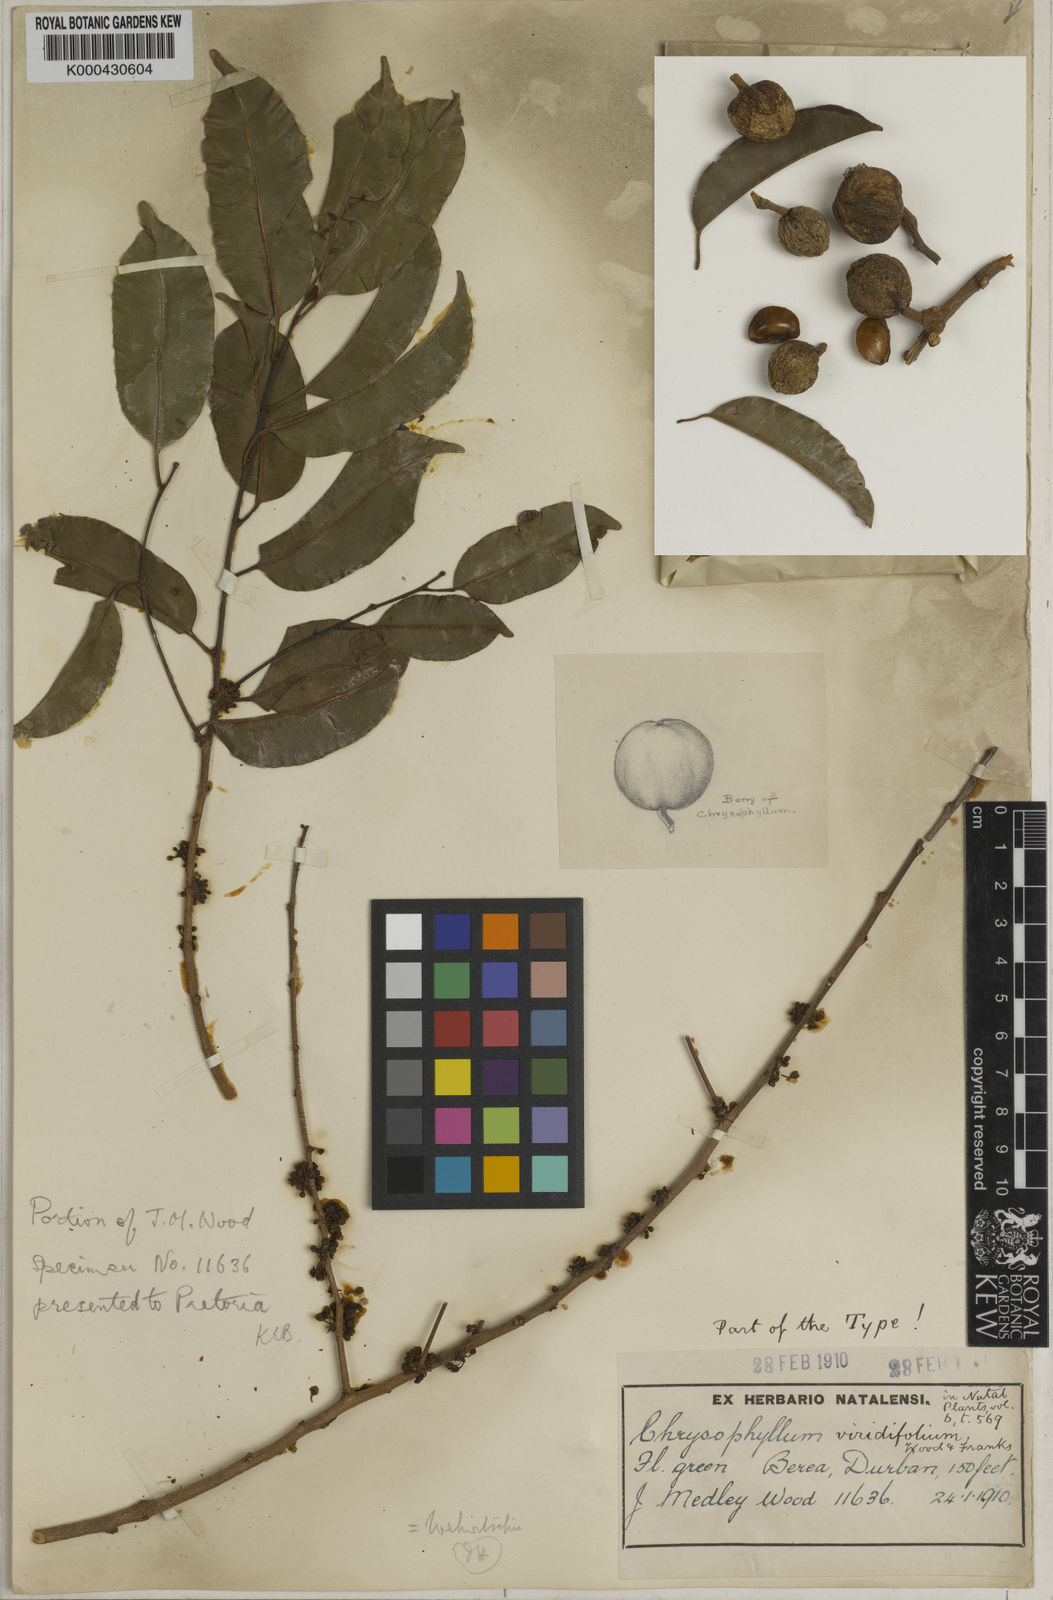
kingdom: Plantae
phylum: Tracheophyta
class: Magnoliopsida
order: Ericales
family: Sapotaceae
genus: Donella
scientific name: Donella viridifolia
